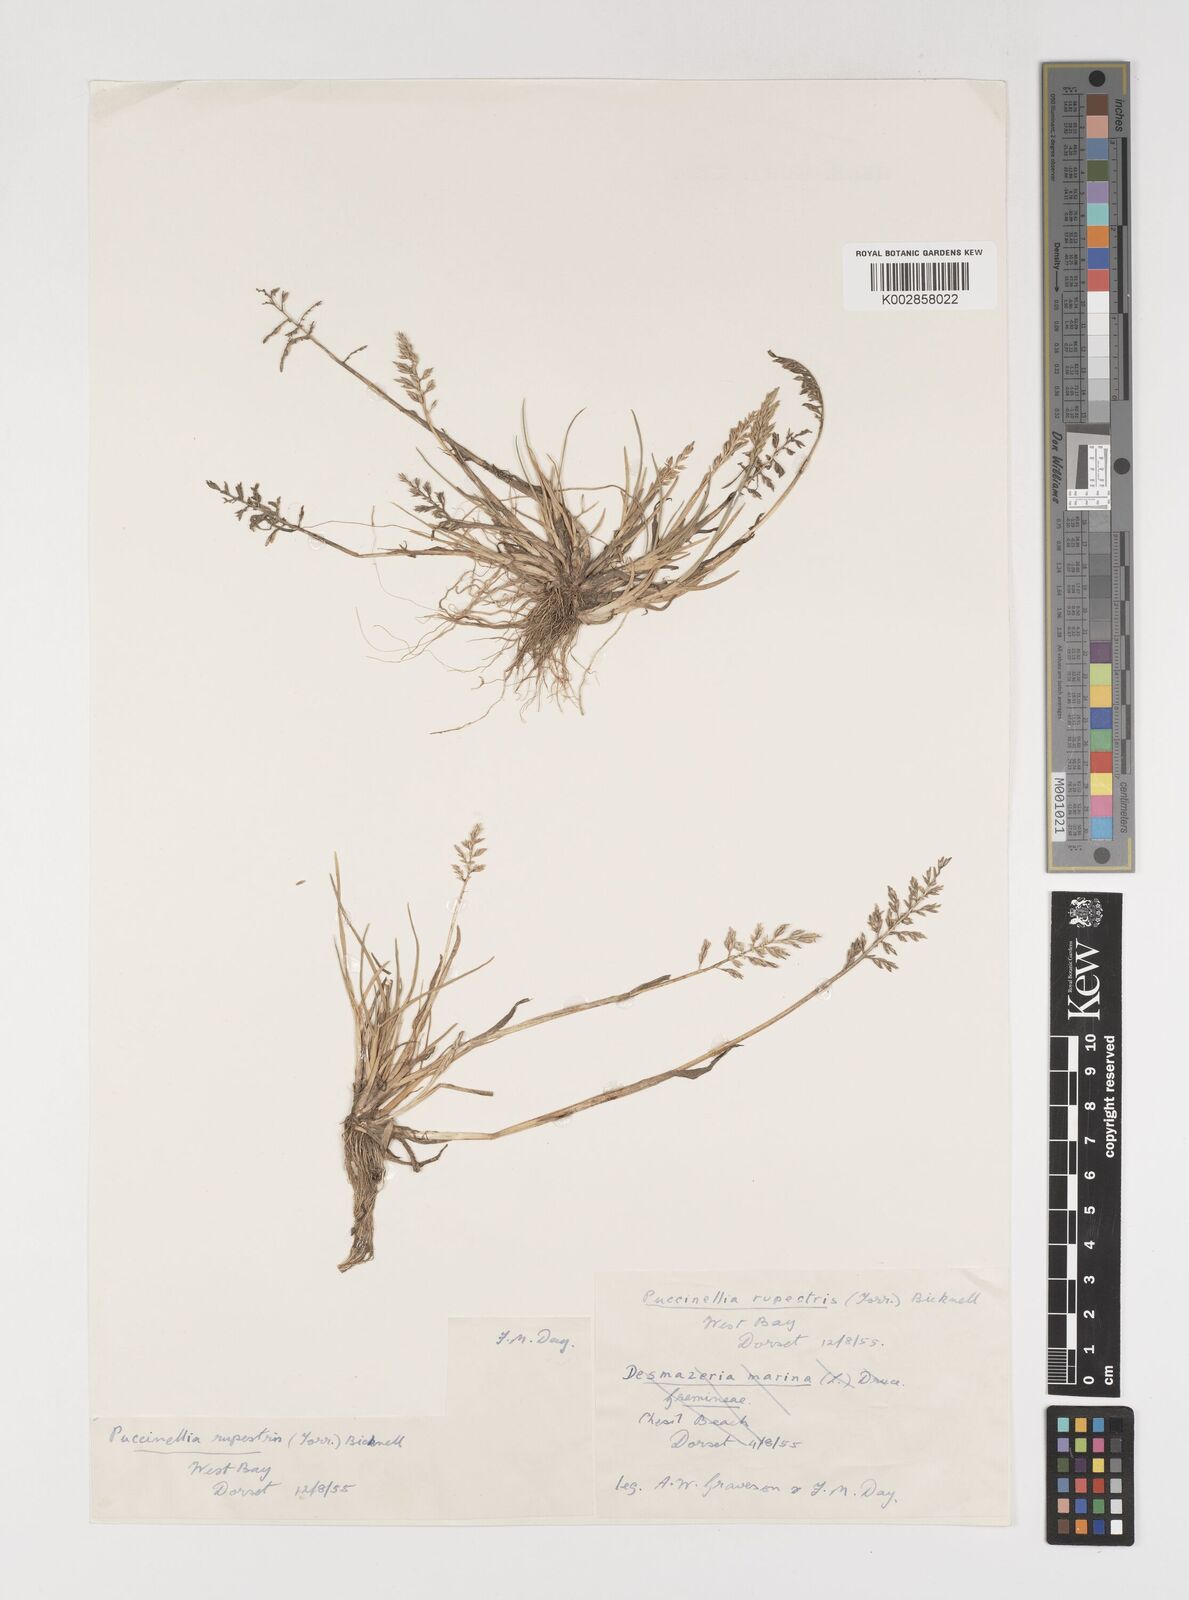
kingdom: Plantae
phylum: Tracheophyta
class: Liliopsida
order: Poales
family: Poaceae
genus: Puccinellia
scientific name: Puccinellia rupestris
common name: Stiff saltmarsh-grass
